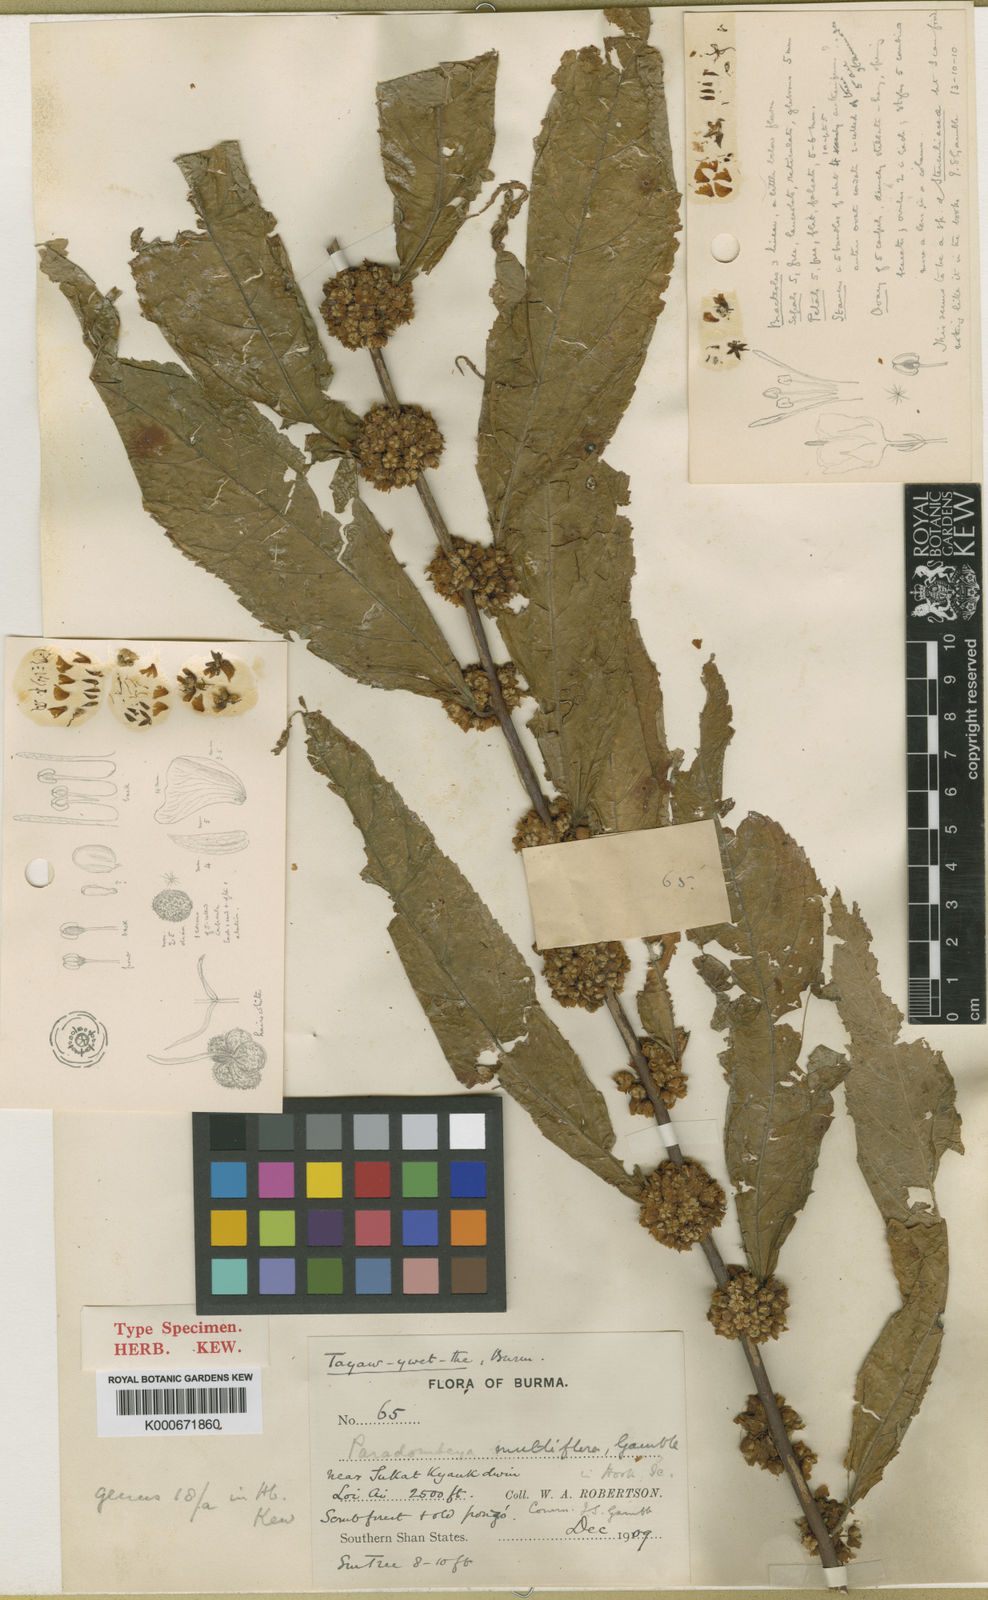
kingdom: Plantae
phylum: Tracheophyta
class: Magnoliopsida
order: Malvales
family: Malvaceae
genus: Corchoropsis
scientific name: Corchoropsis burmanica
